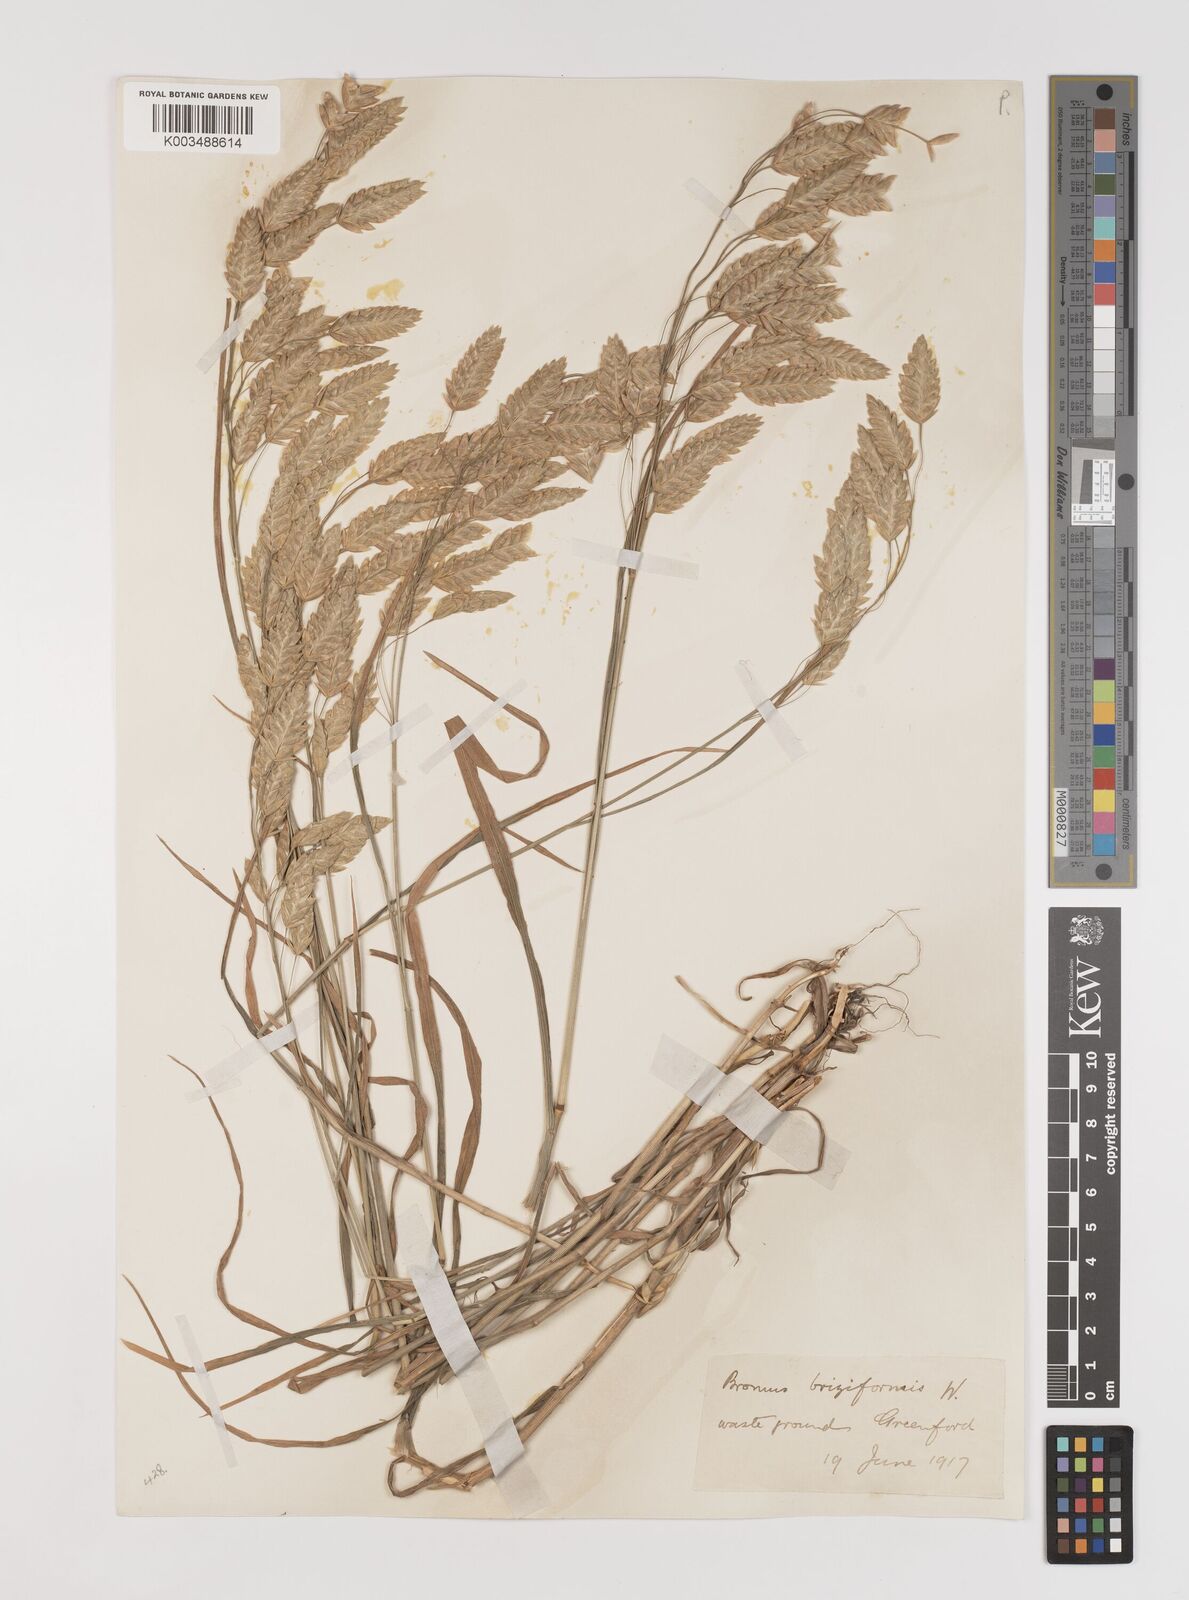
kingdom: Plantae
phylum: Tracheophyta
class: Liliopsida
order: Poales
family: Poaceae
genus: Bromus
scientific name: Bromus briziformis
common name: Rattlesnake brome
